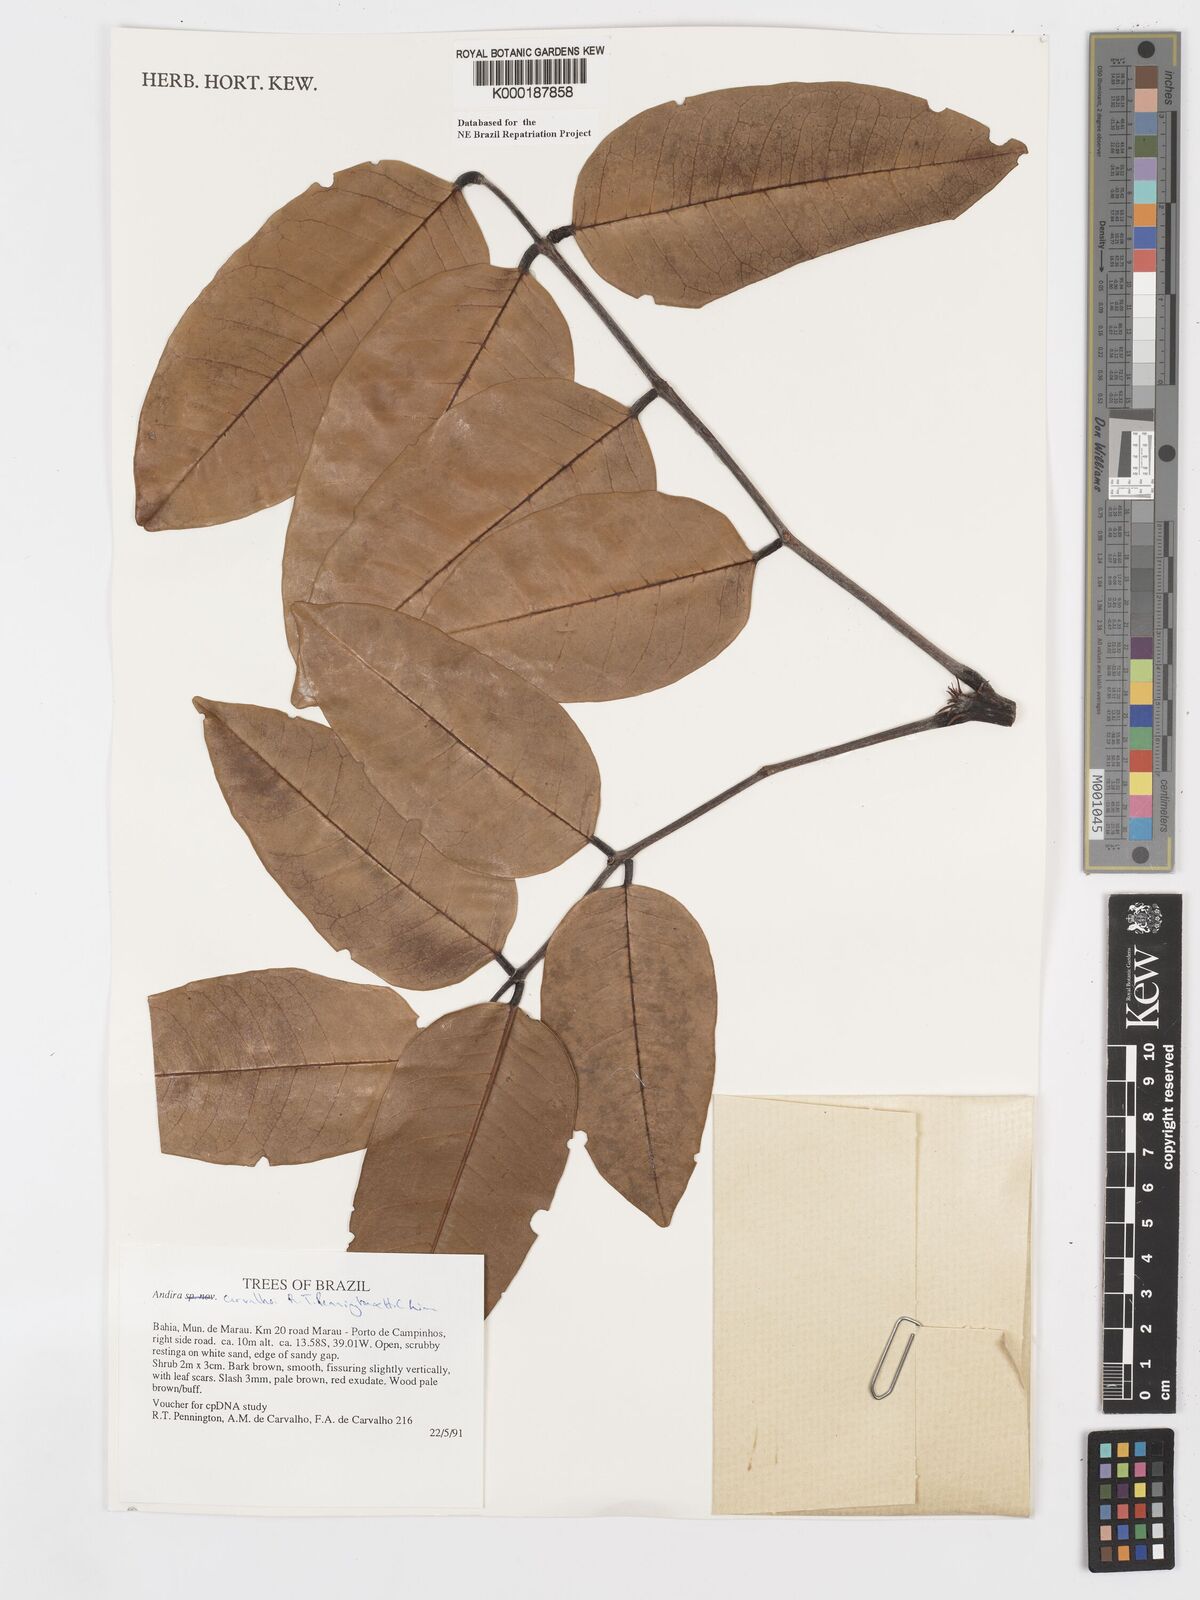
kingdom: Plantae
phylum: Tracheophyta
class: Magnoliopsida
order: Fabales
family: Fabaceae
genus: Andira
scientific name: Andira carvalhoi
